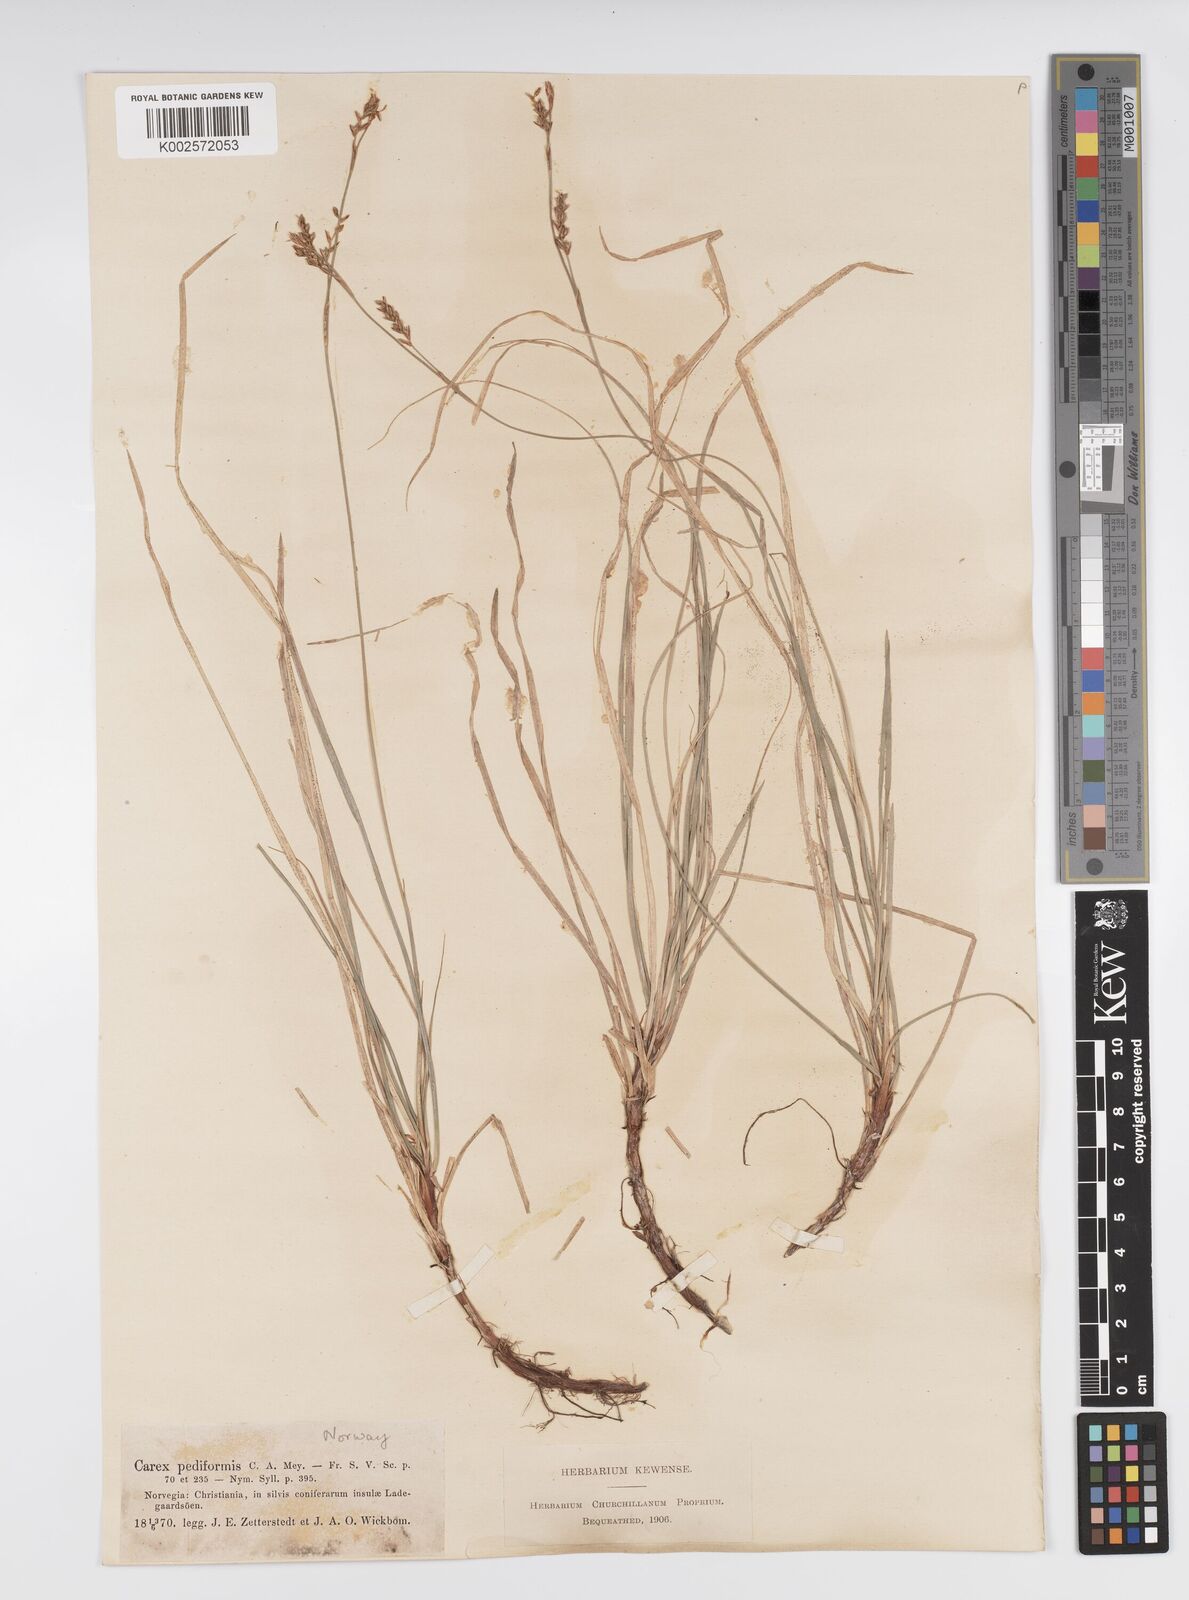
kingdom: Plantae
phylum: Tracheophyta
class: Liliopsida
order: Poales
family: Cyperaceae
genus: Carex
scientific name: Carex pediformis
